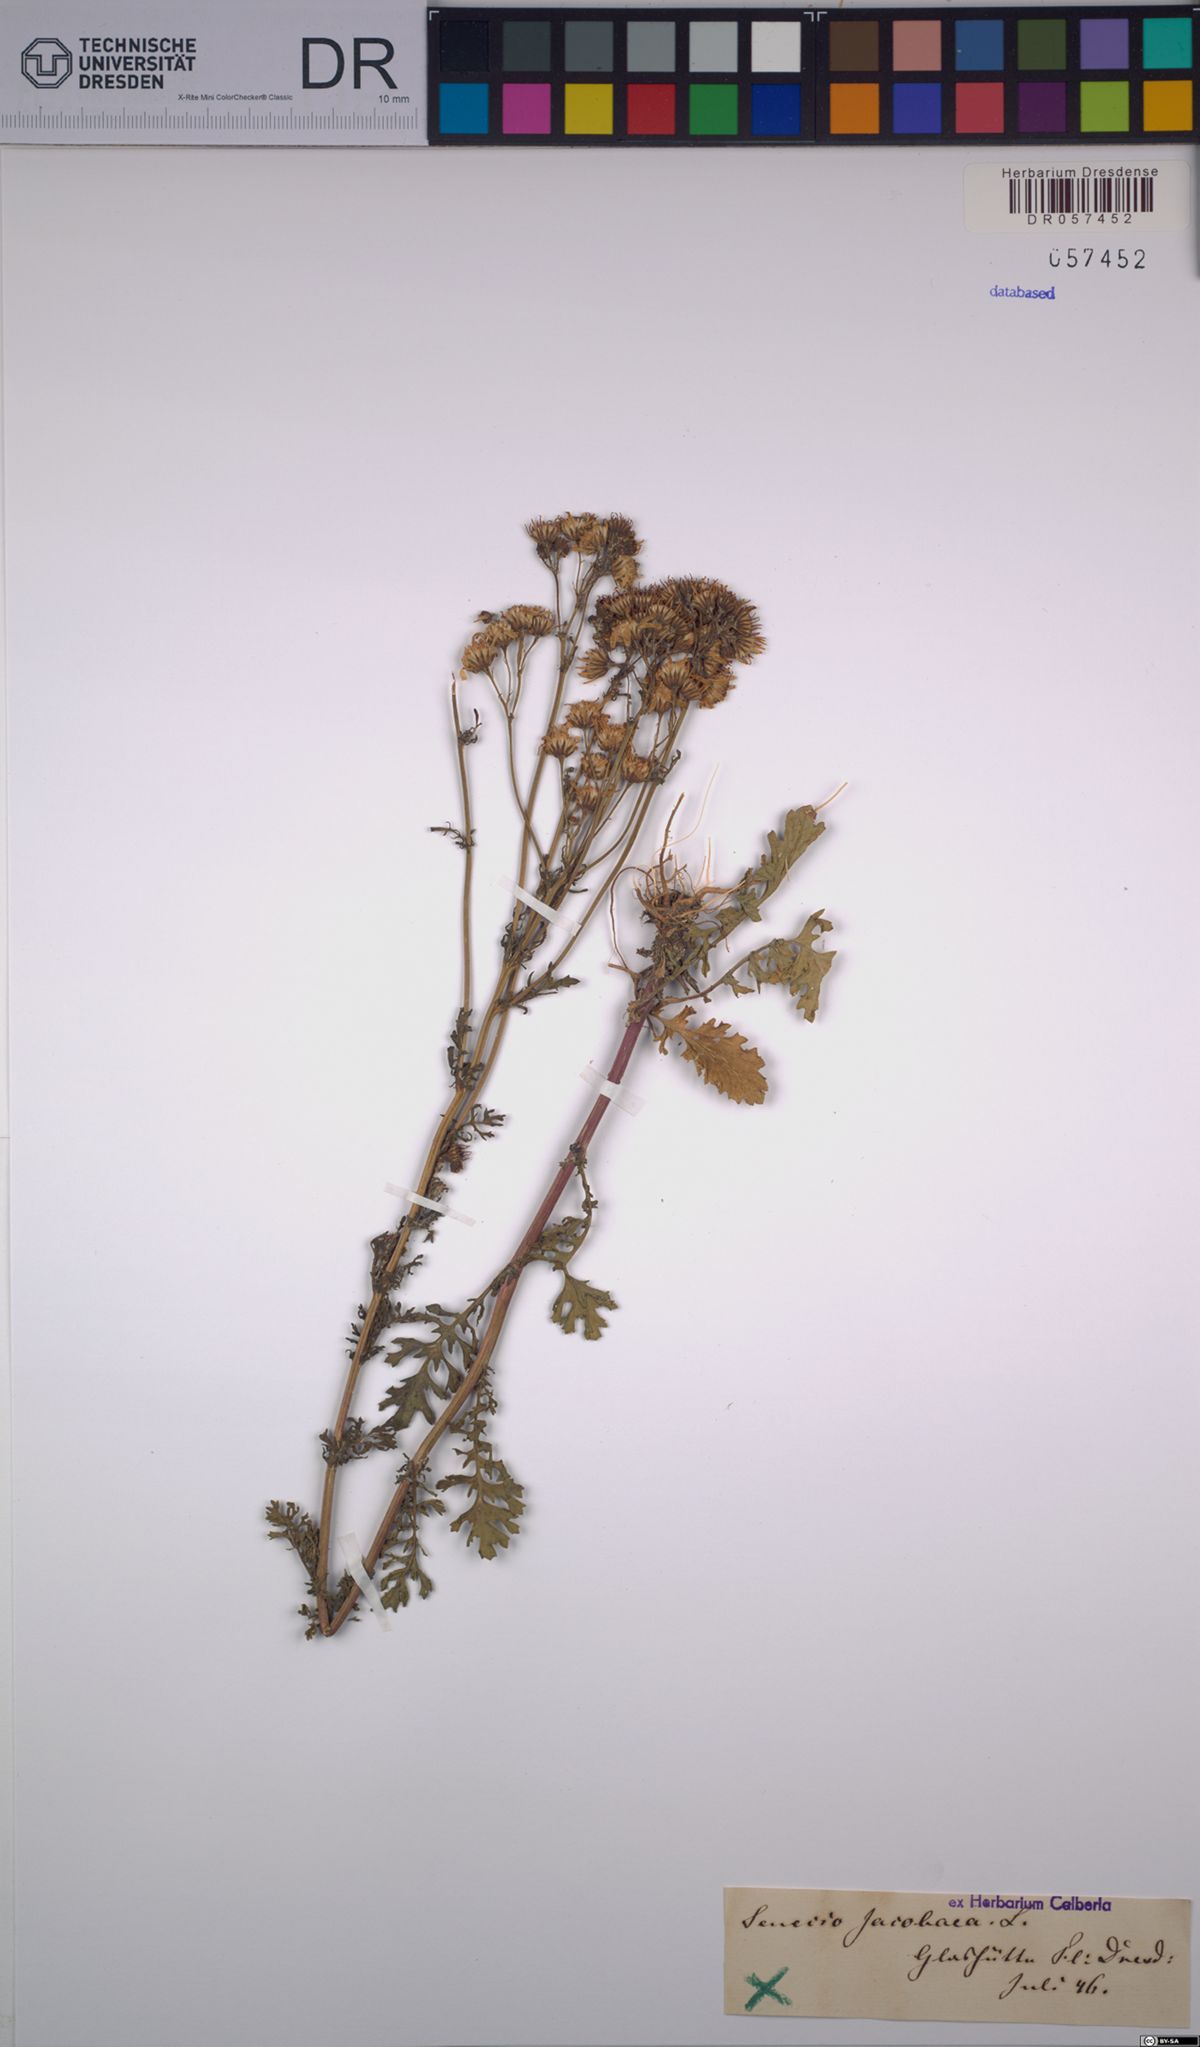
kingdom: Plantae
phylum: Tracheophyta
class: Magnoliopsida
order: Asterales
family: Asteraceae
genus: Jacobaea
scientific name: Jacobaea vulgaris
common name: Stinking willie
